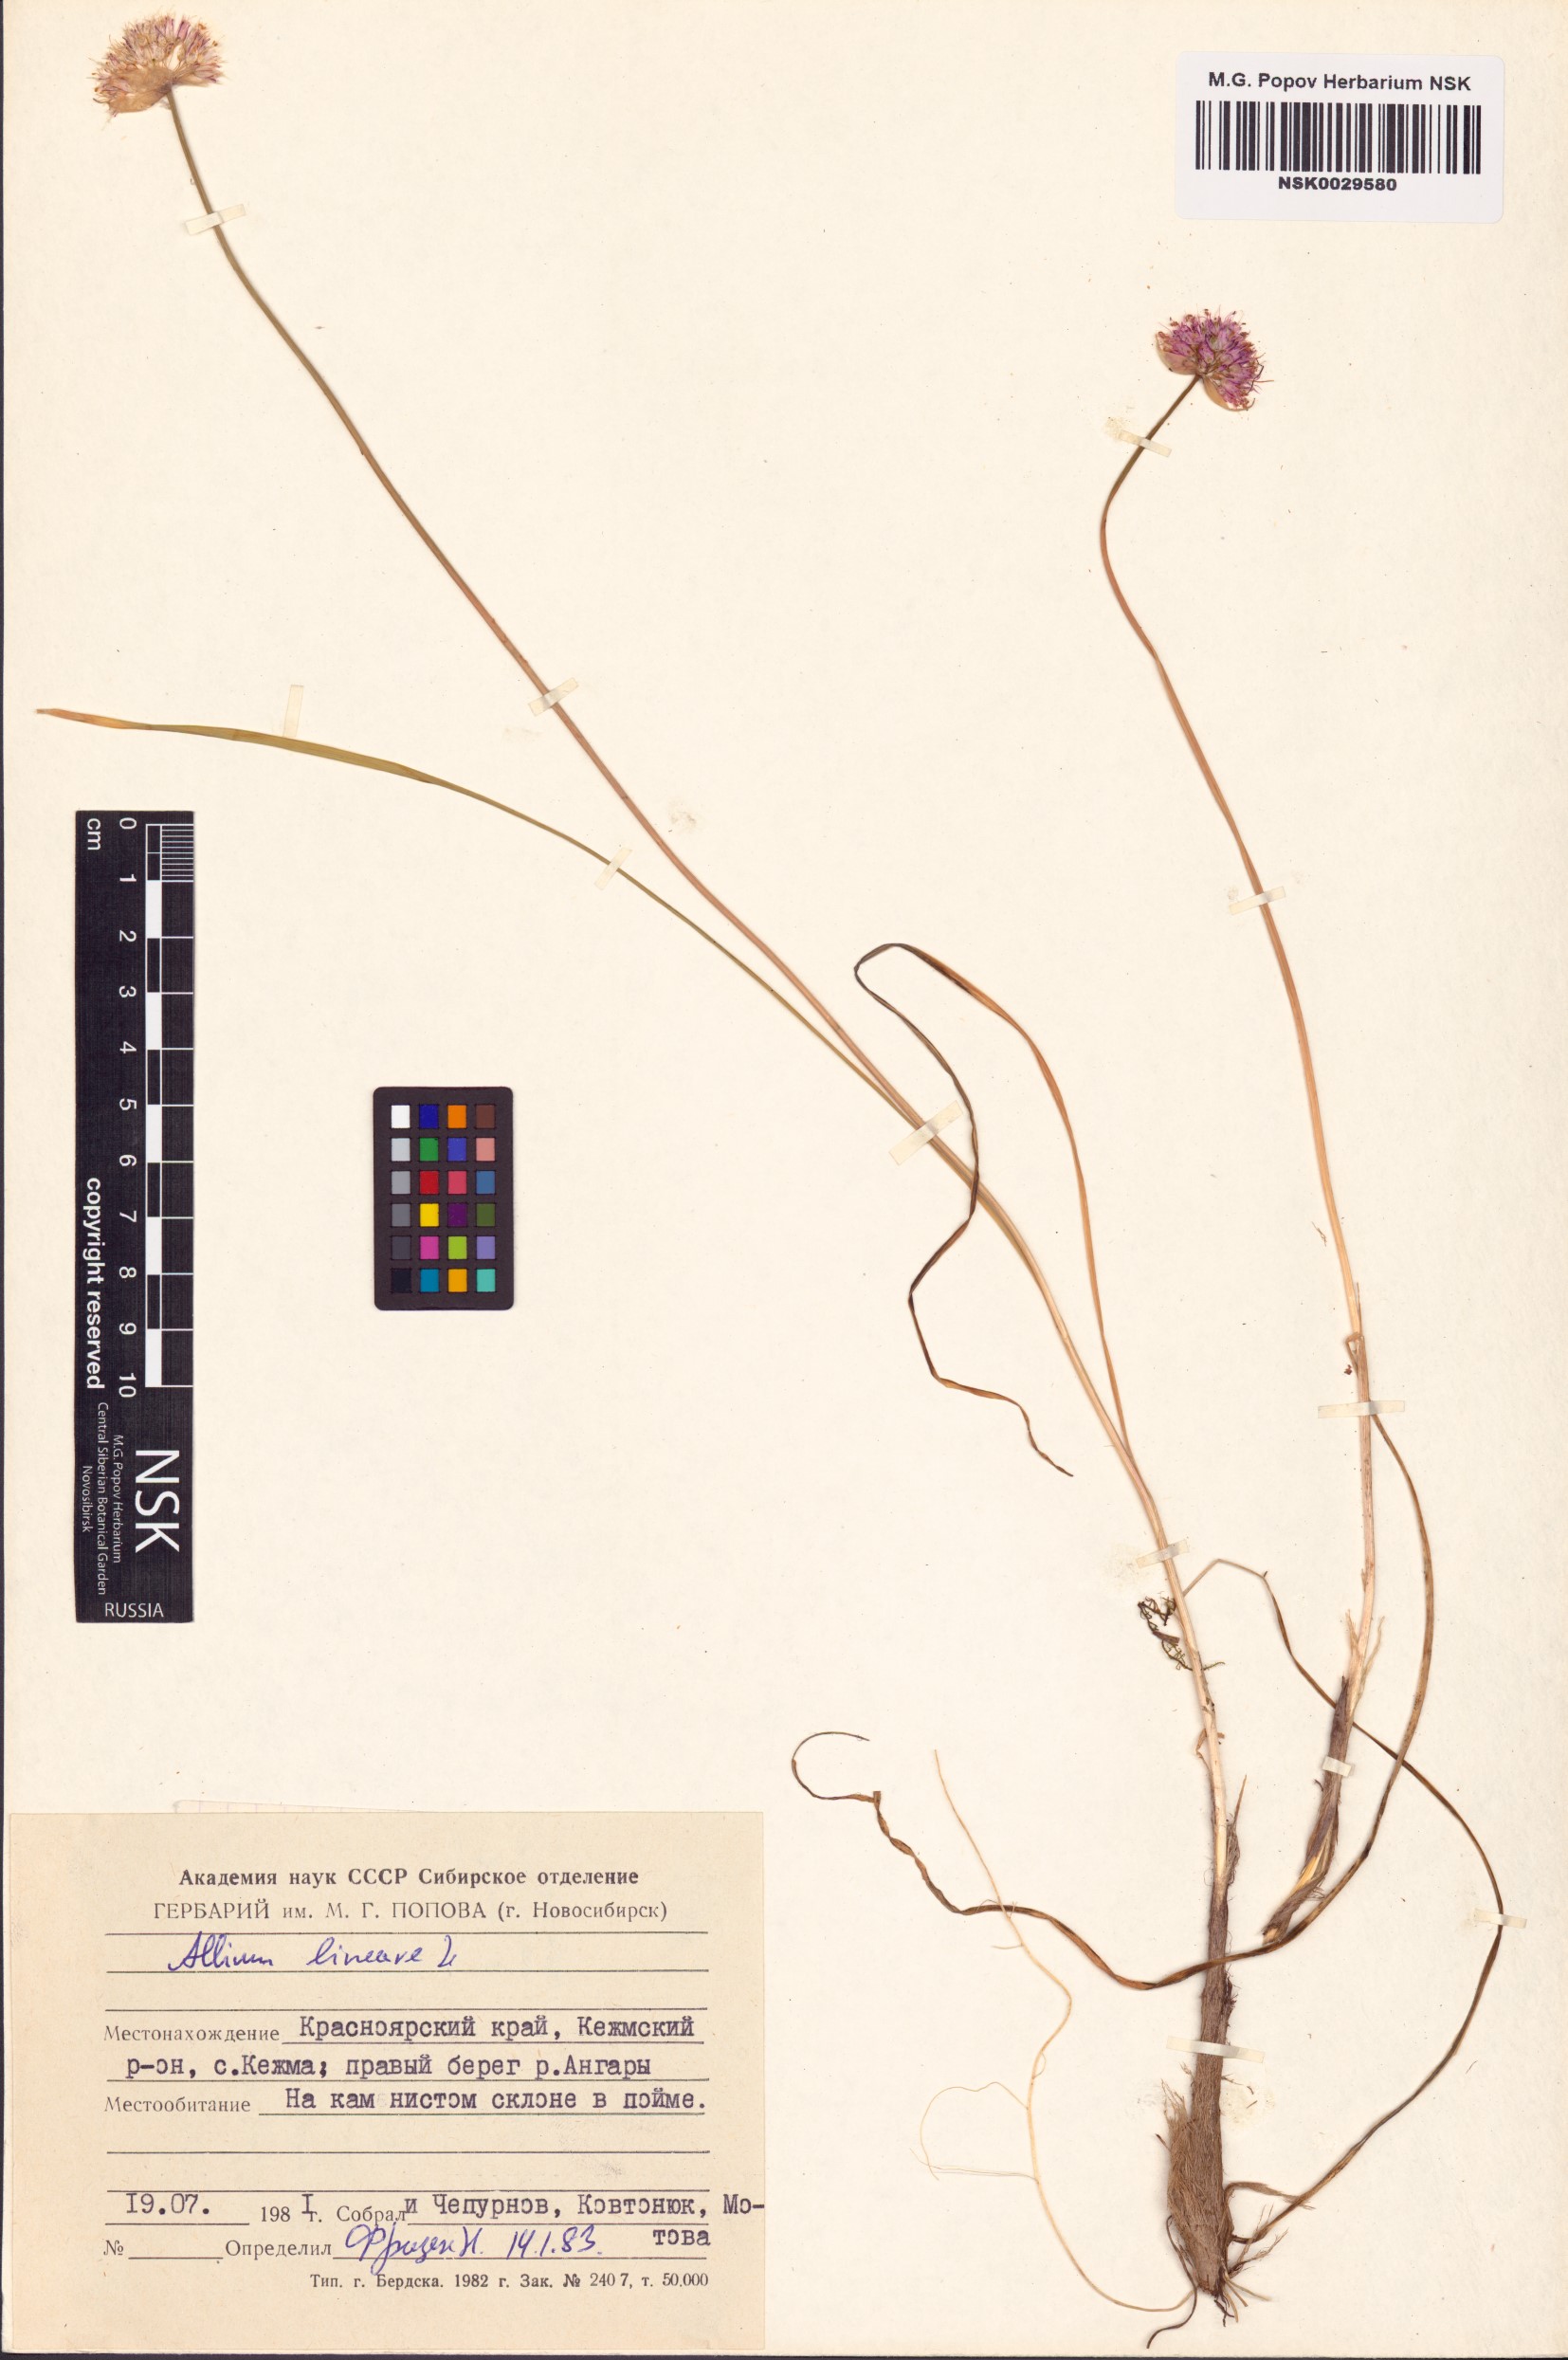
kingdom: Plantae
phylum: Tracheophyta
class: Liliopsida
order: Asparagales
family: Amaryllidaceae
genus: Allium
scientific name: Allium lineare
